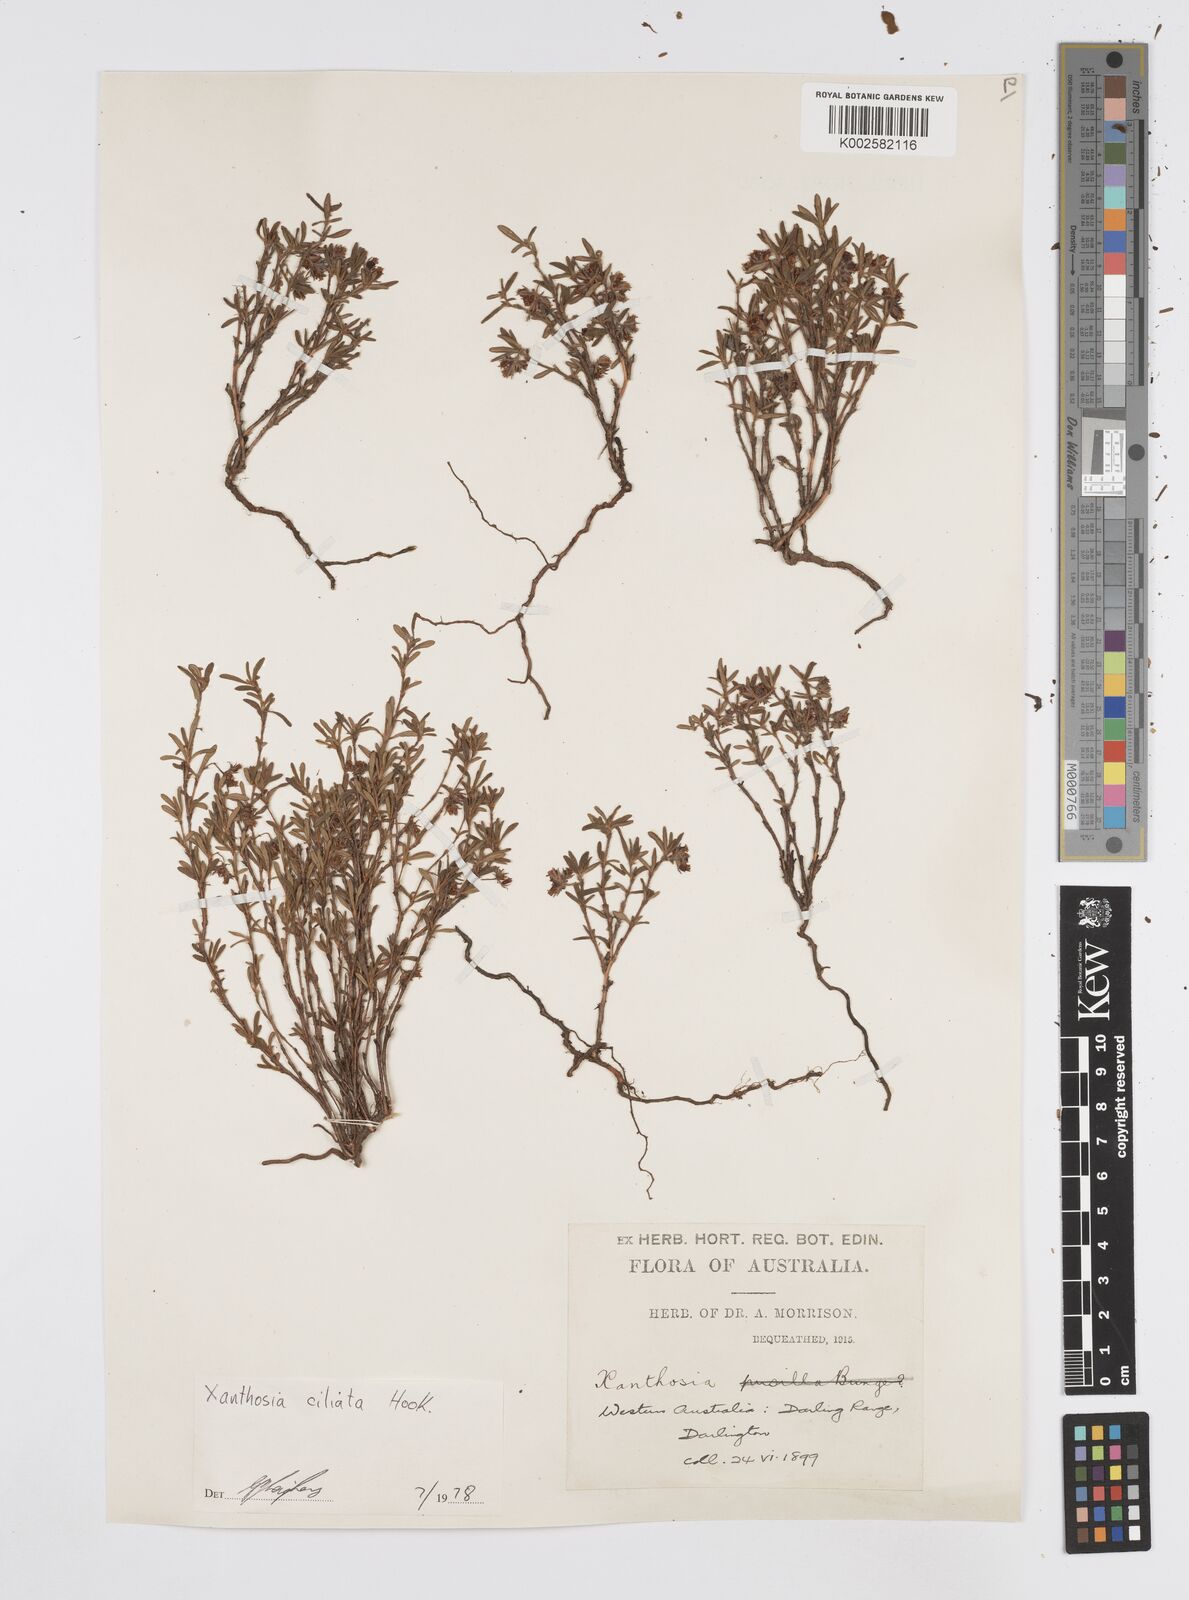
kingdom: Plantae
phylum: Tracheophyta
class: Magnoliopsida
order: Apiales
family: Apiaceae
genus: Xanthosia
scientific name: Xanthosia ciliata
